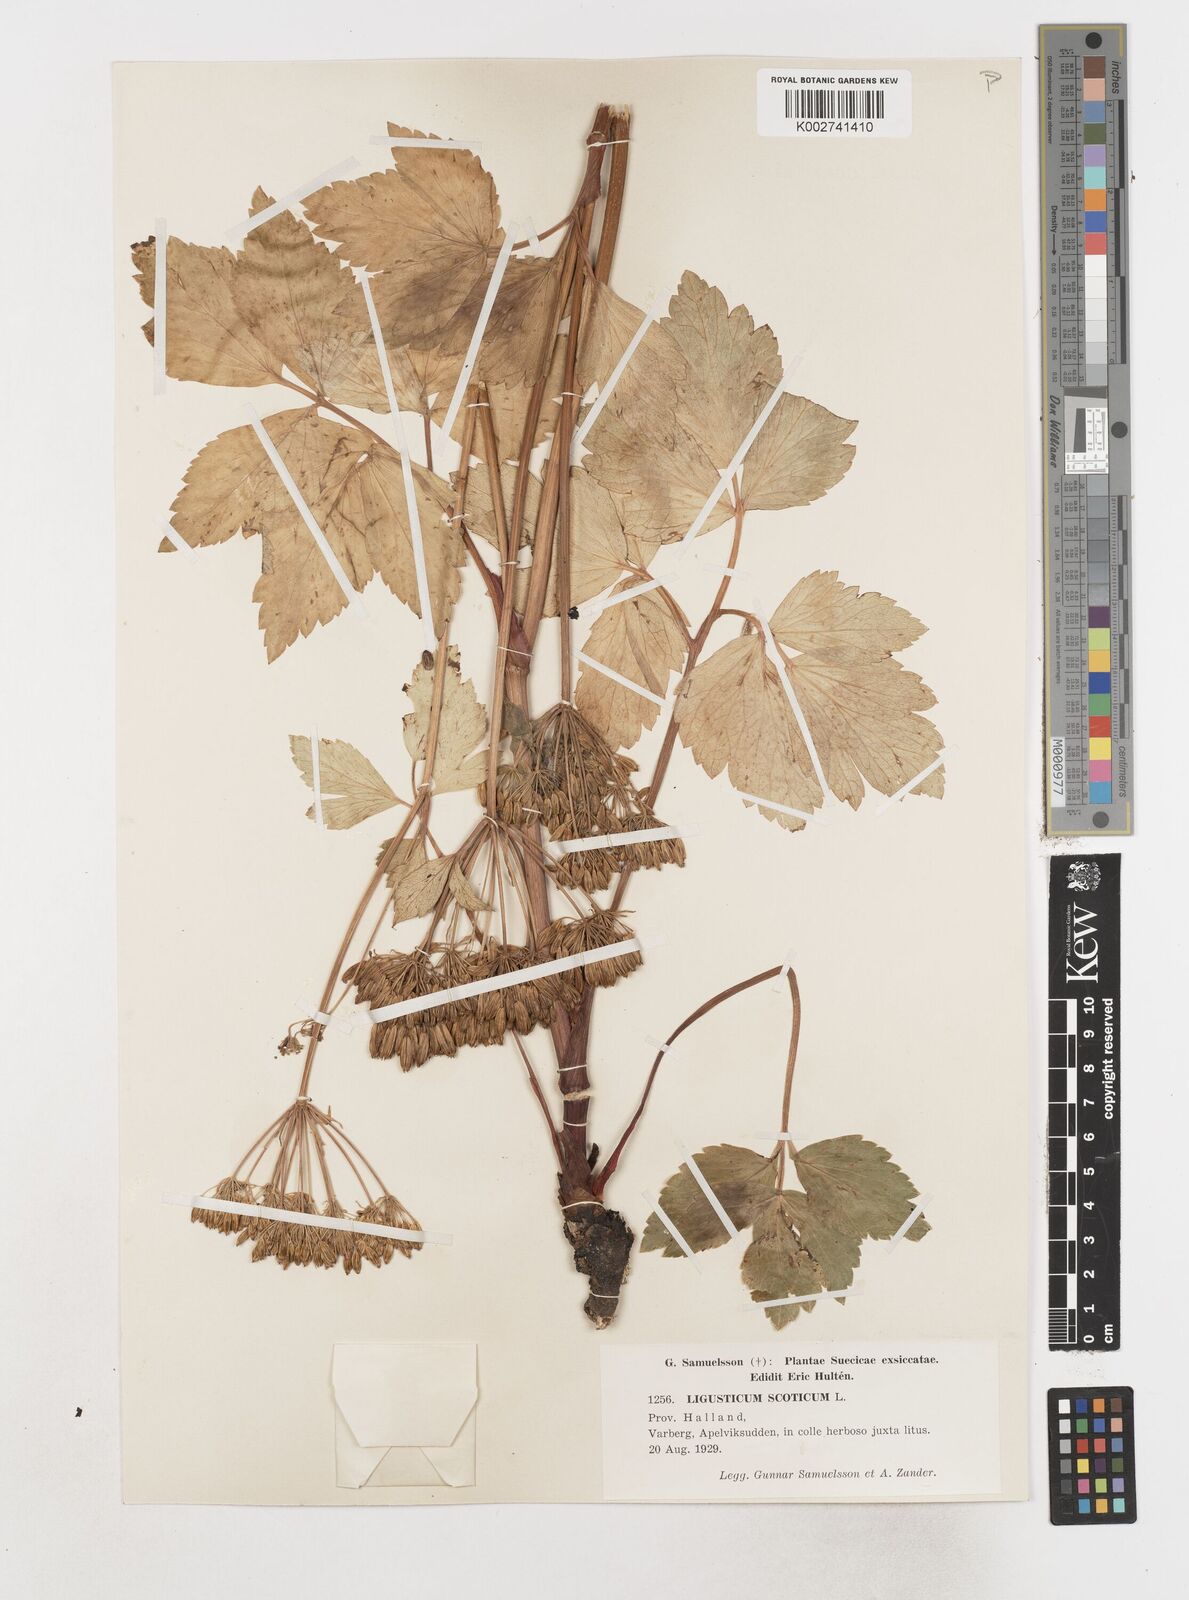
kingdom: Plantae
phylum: Tracheophyta
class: Magnoliopsida
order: Apiales
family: Apiaceae
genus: Ligusticum
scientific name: Ligusticum scothicum
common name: Beach lovage
